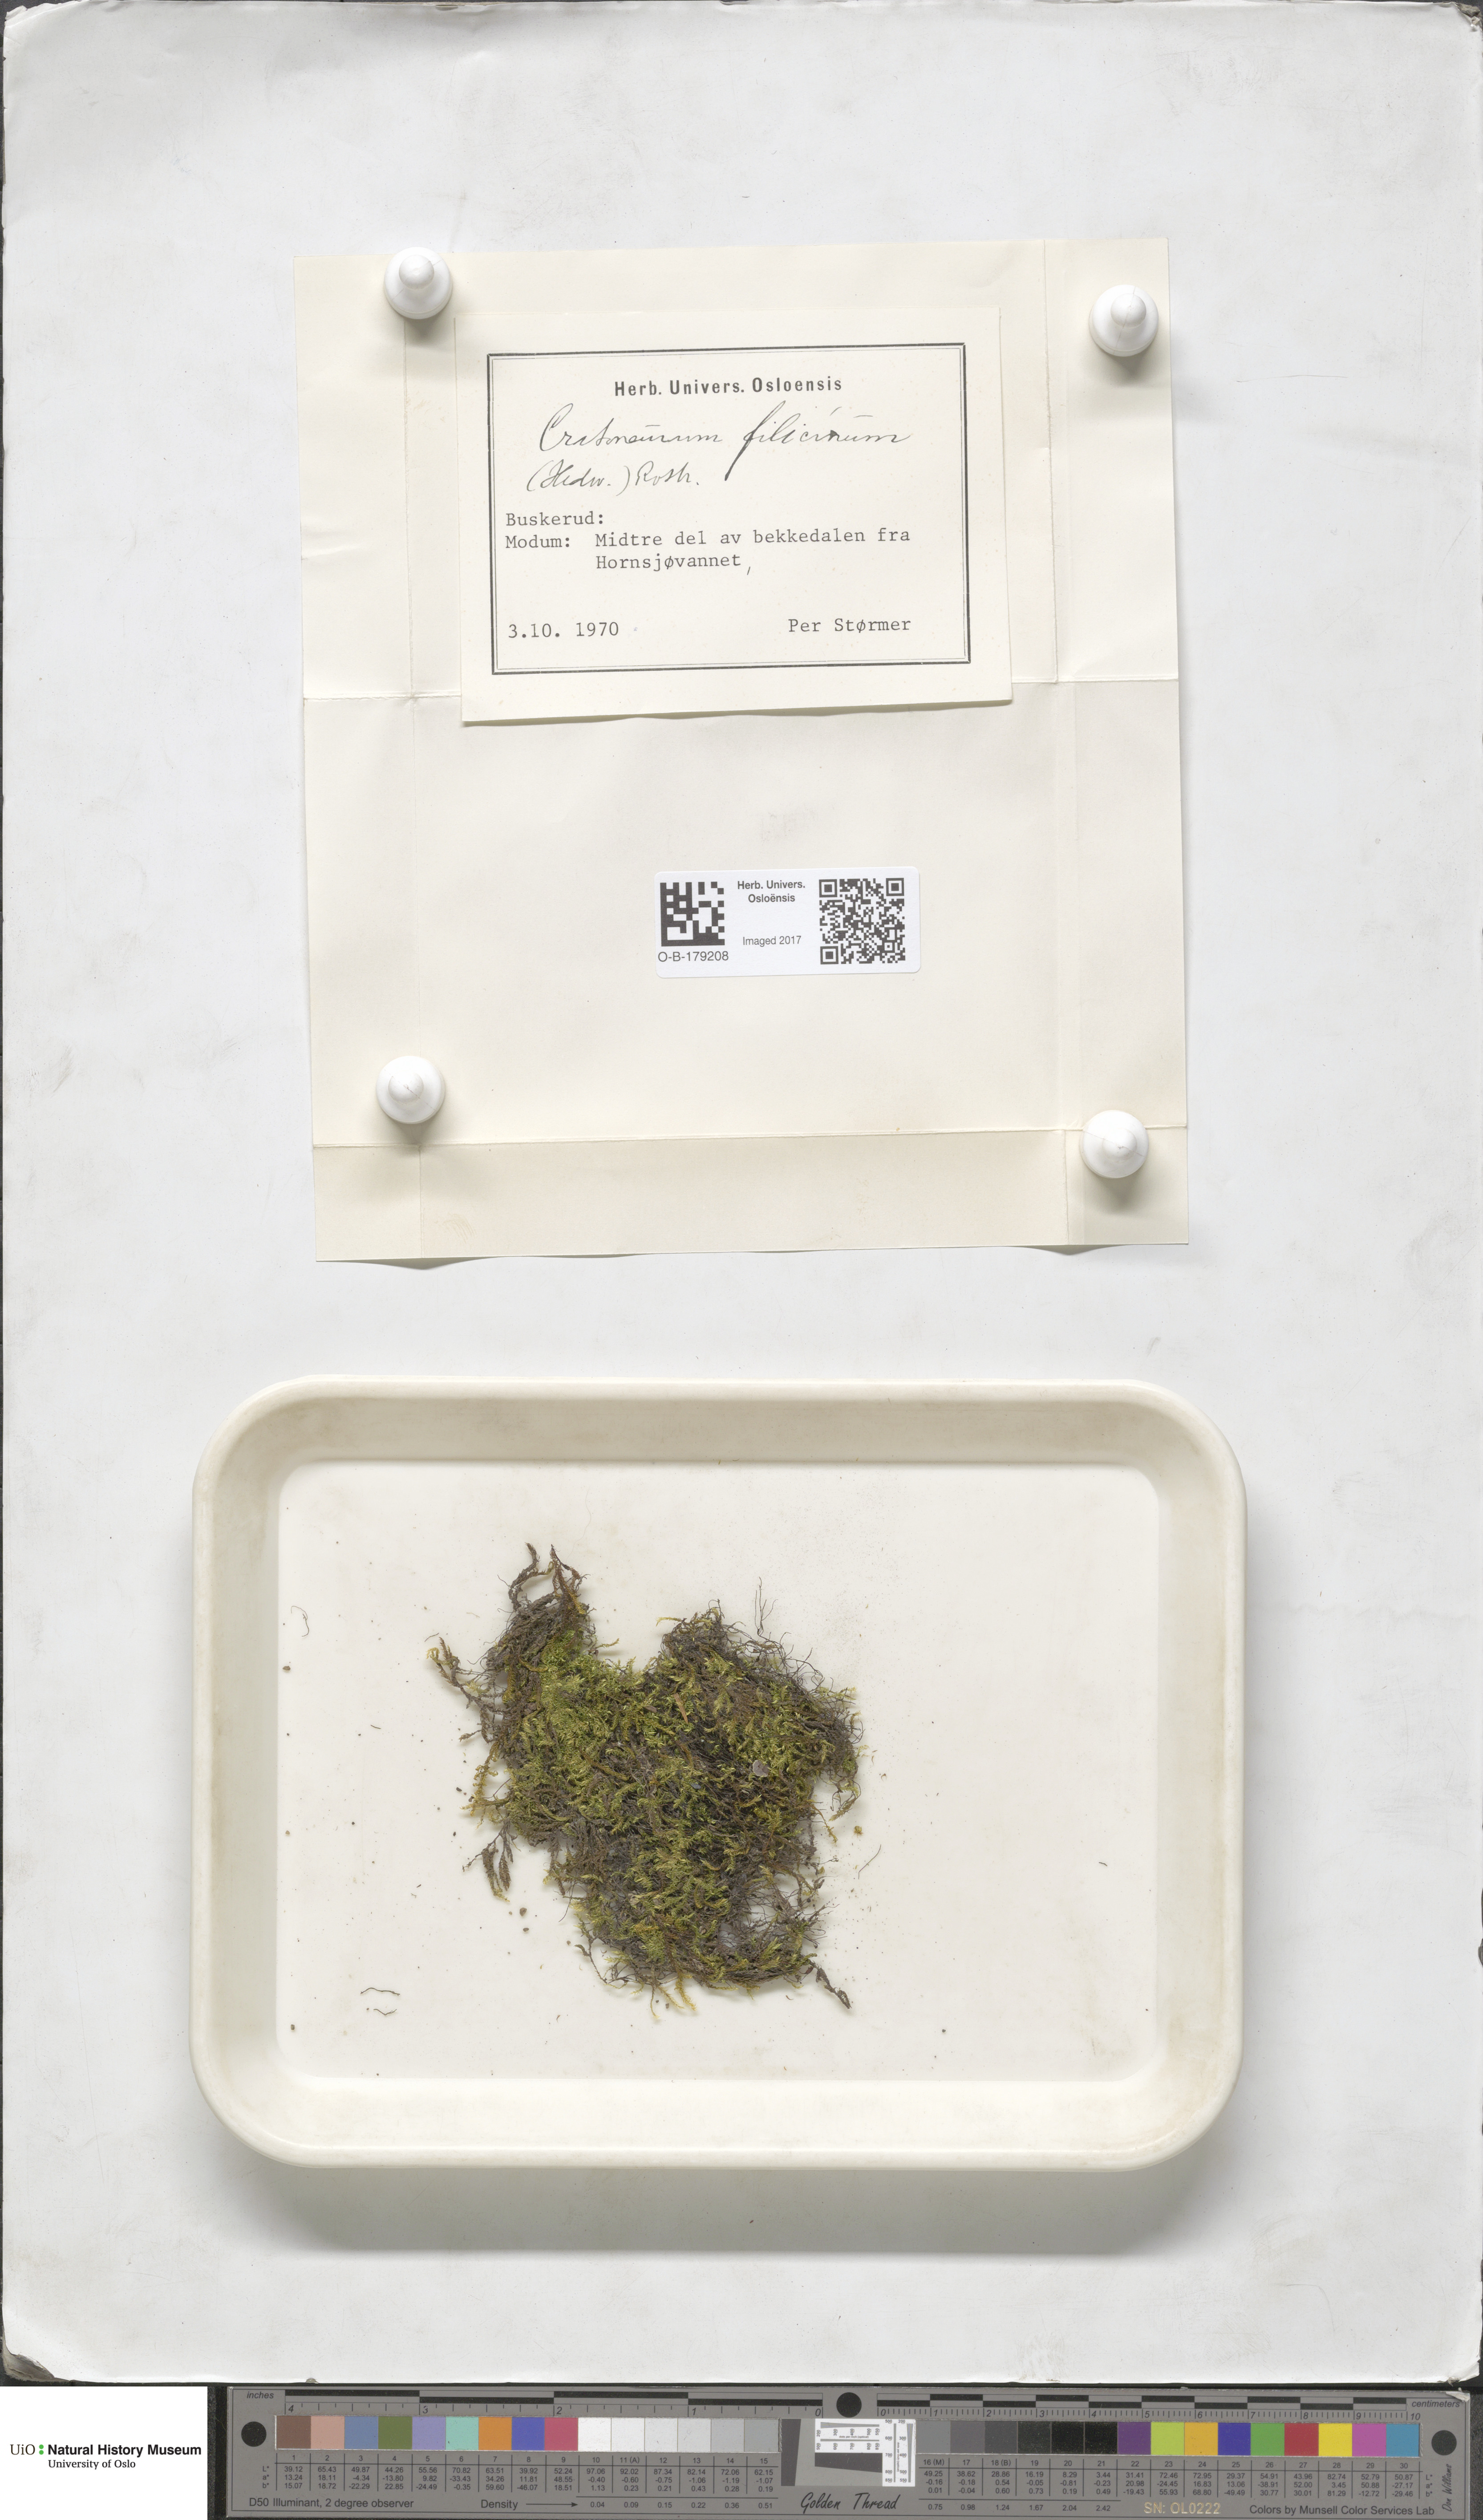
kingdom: Plantae
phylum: Bryophyta
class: Bryopsida
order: Hypnales
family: Amblystegiaceae
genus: Cratoneuron
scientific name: Cratoneuron filicinum
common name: Fern-leaved hook moss
